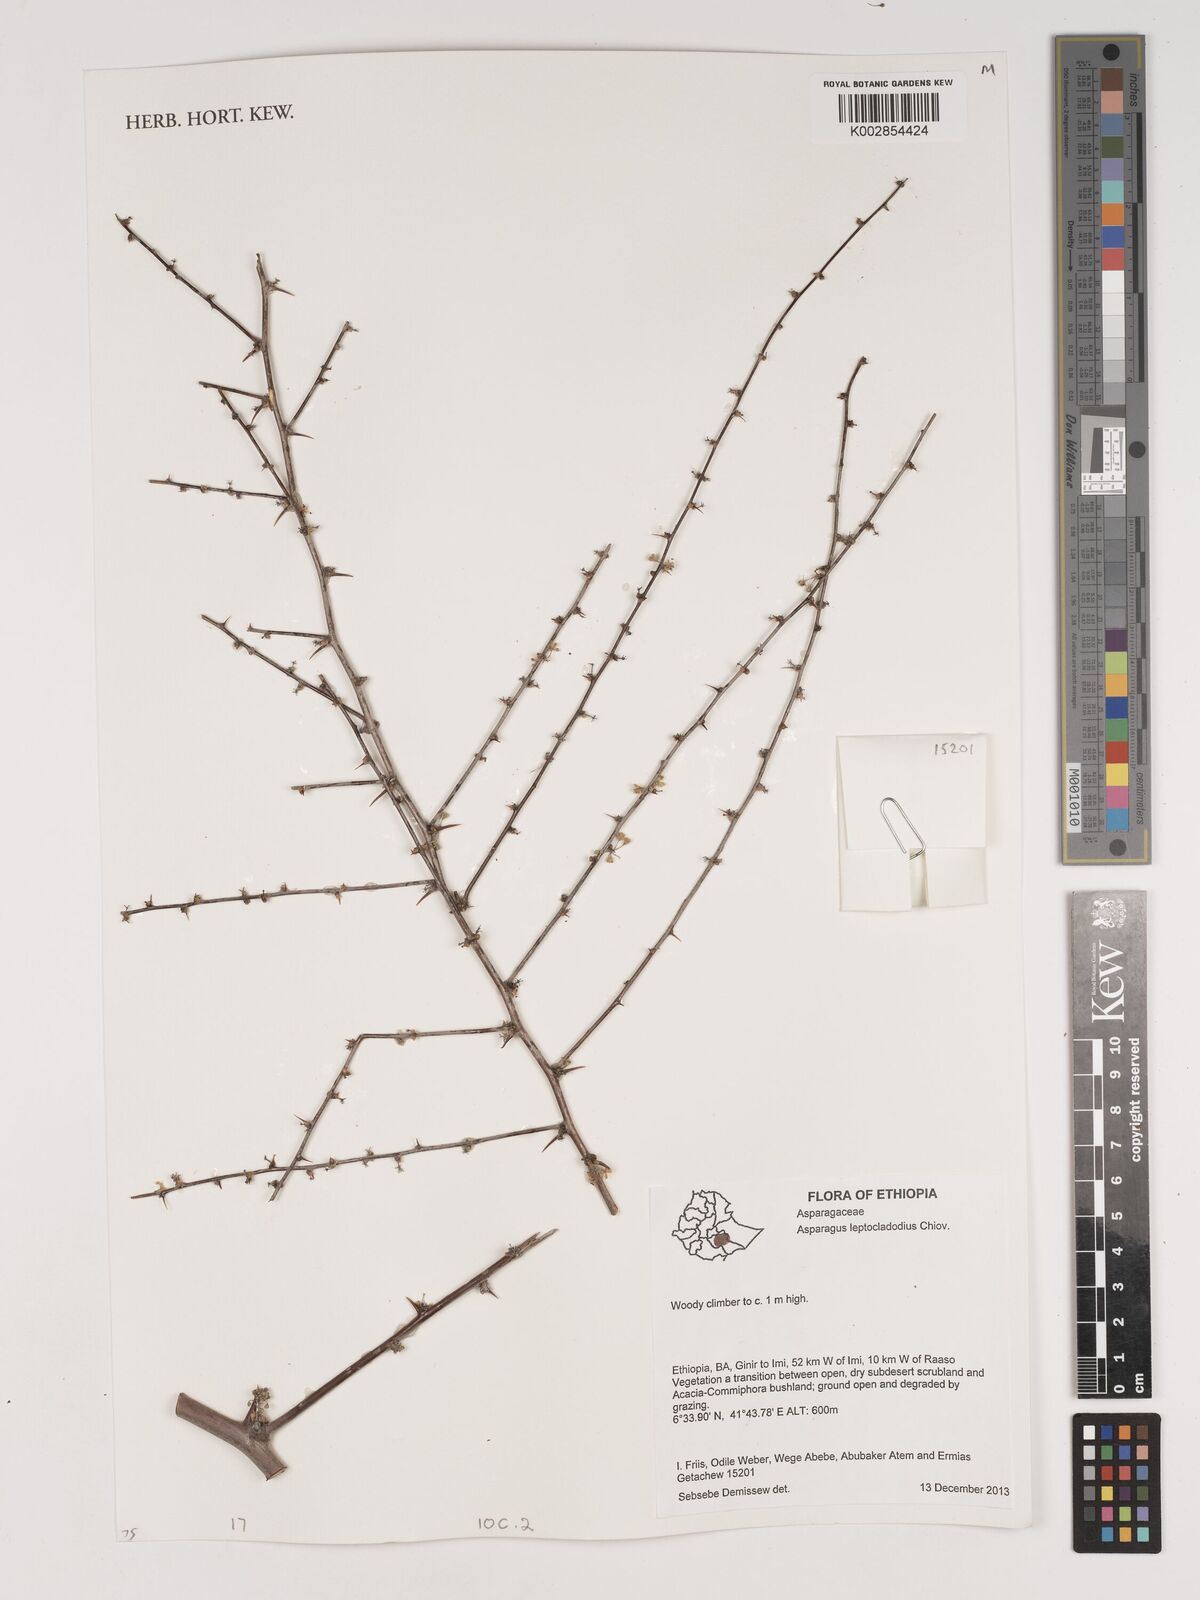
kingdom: Plantae
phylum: Tracheophyta
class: Liliopsida
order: Asparagales
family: Asparagaceae
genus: Asparagus
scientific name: Asparagus leptocladodius
